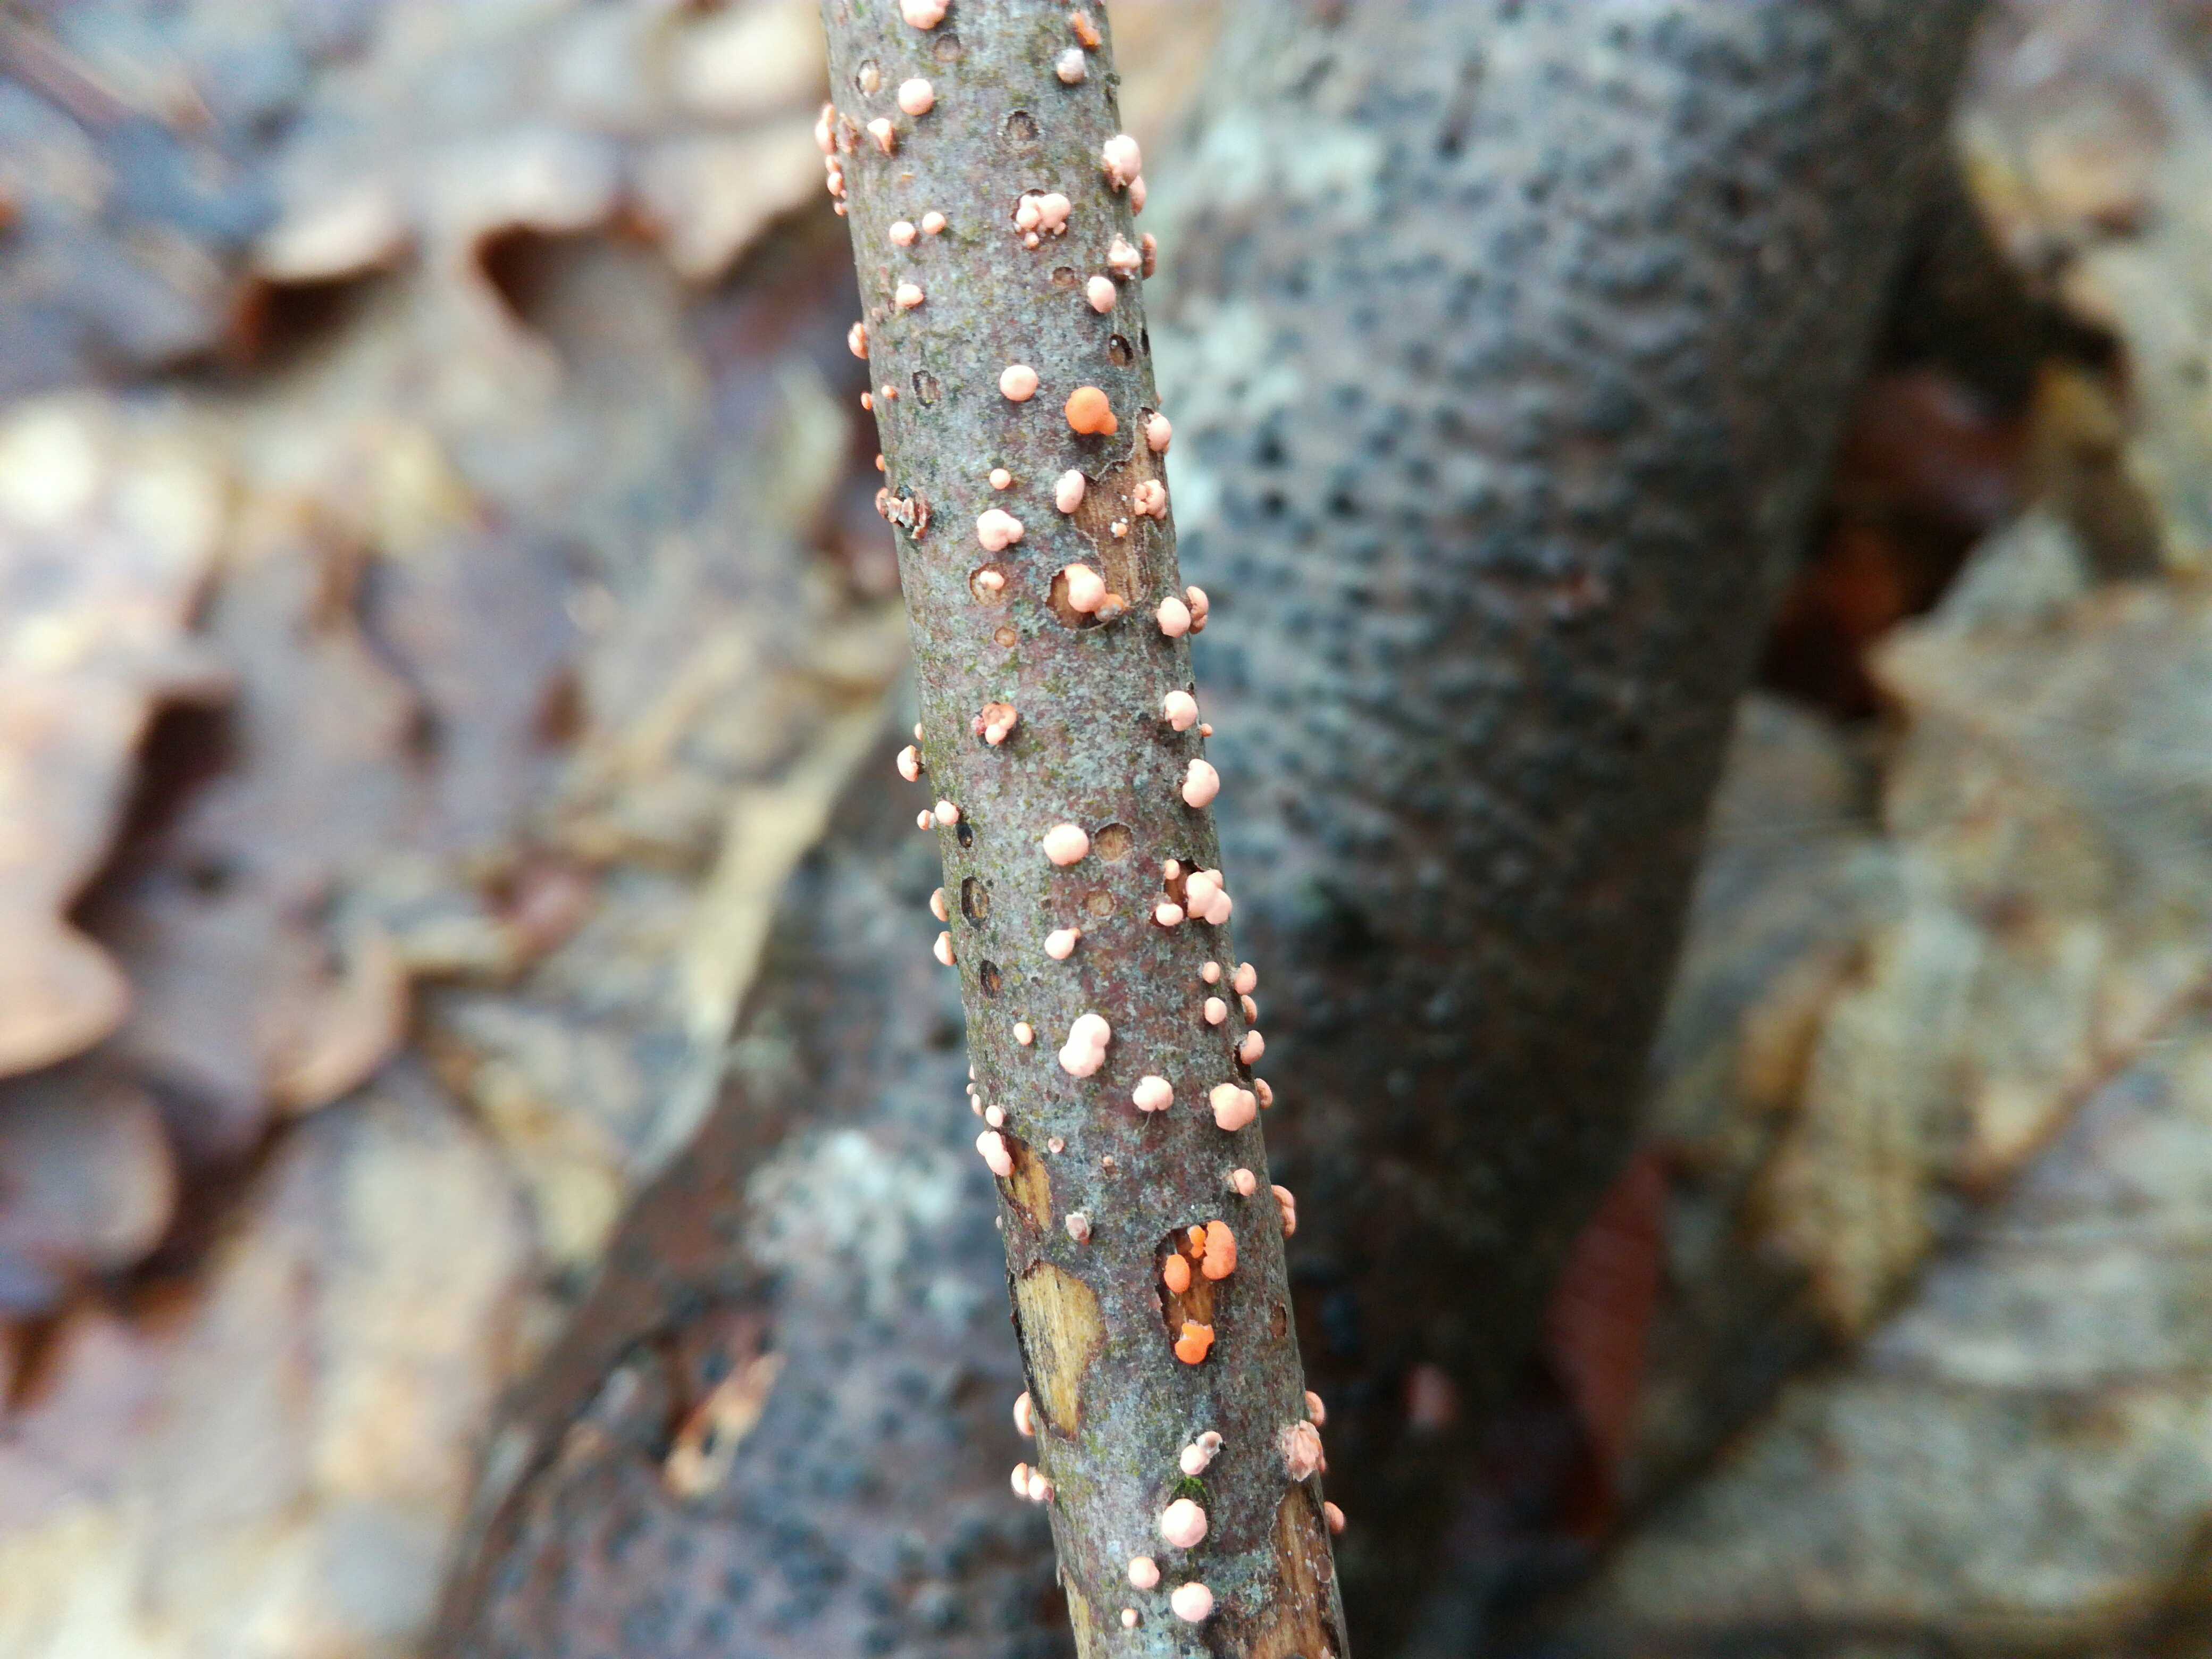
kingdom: Fungi
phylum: Ascomycota
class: Sordariomycetes
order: Hypocreales
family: Nectriaceae
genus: Nectria
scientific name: Nectria cinnabarina
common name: almindelig cinnobersvamp
